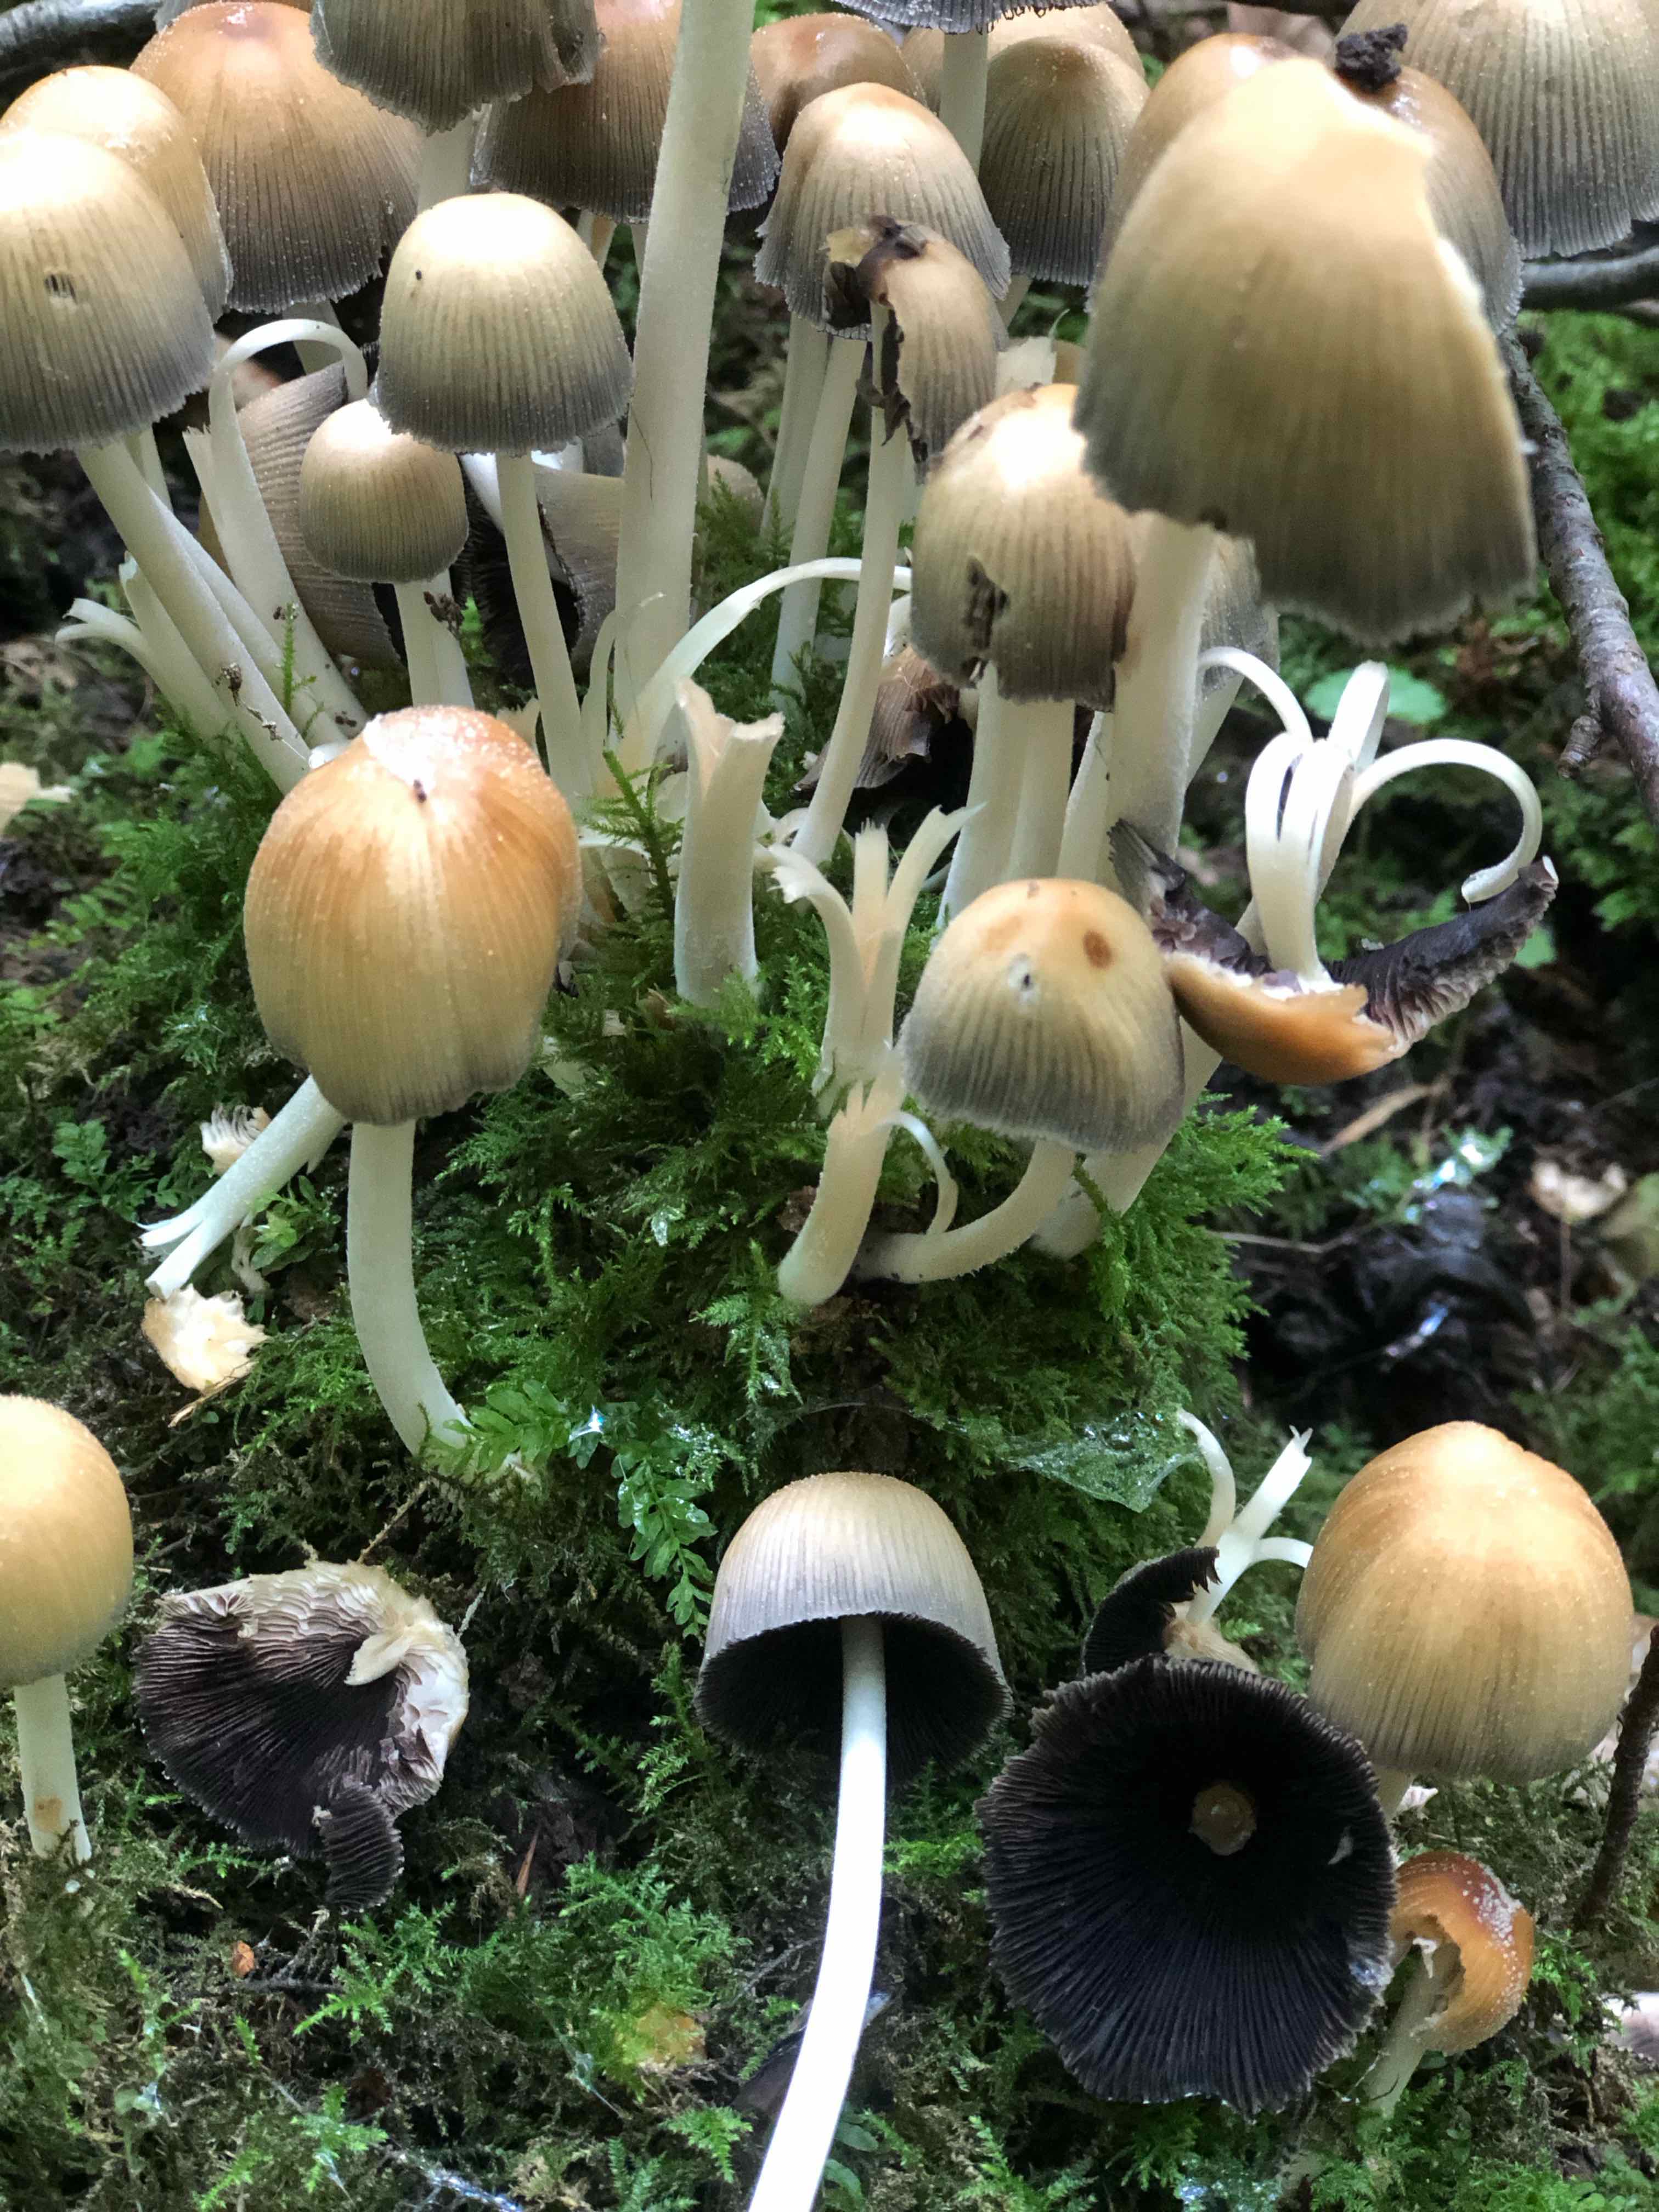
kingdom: Fungi
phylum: Basidiomycota
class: Agaricomycetes
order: Agaricales
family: Psathyrellaceae
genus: Coprinellus
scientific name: Coprinellus
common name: blækhat
